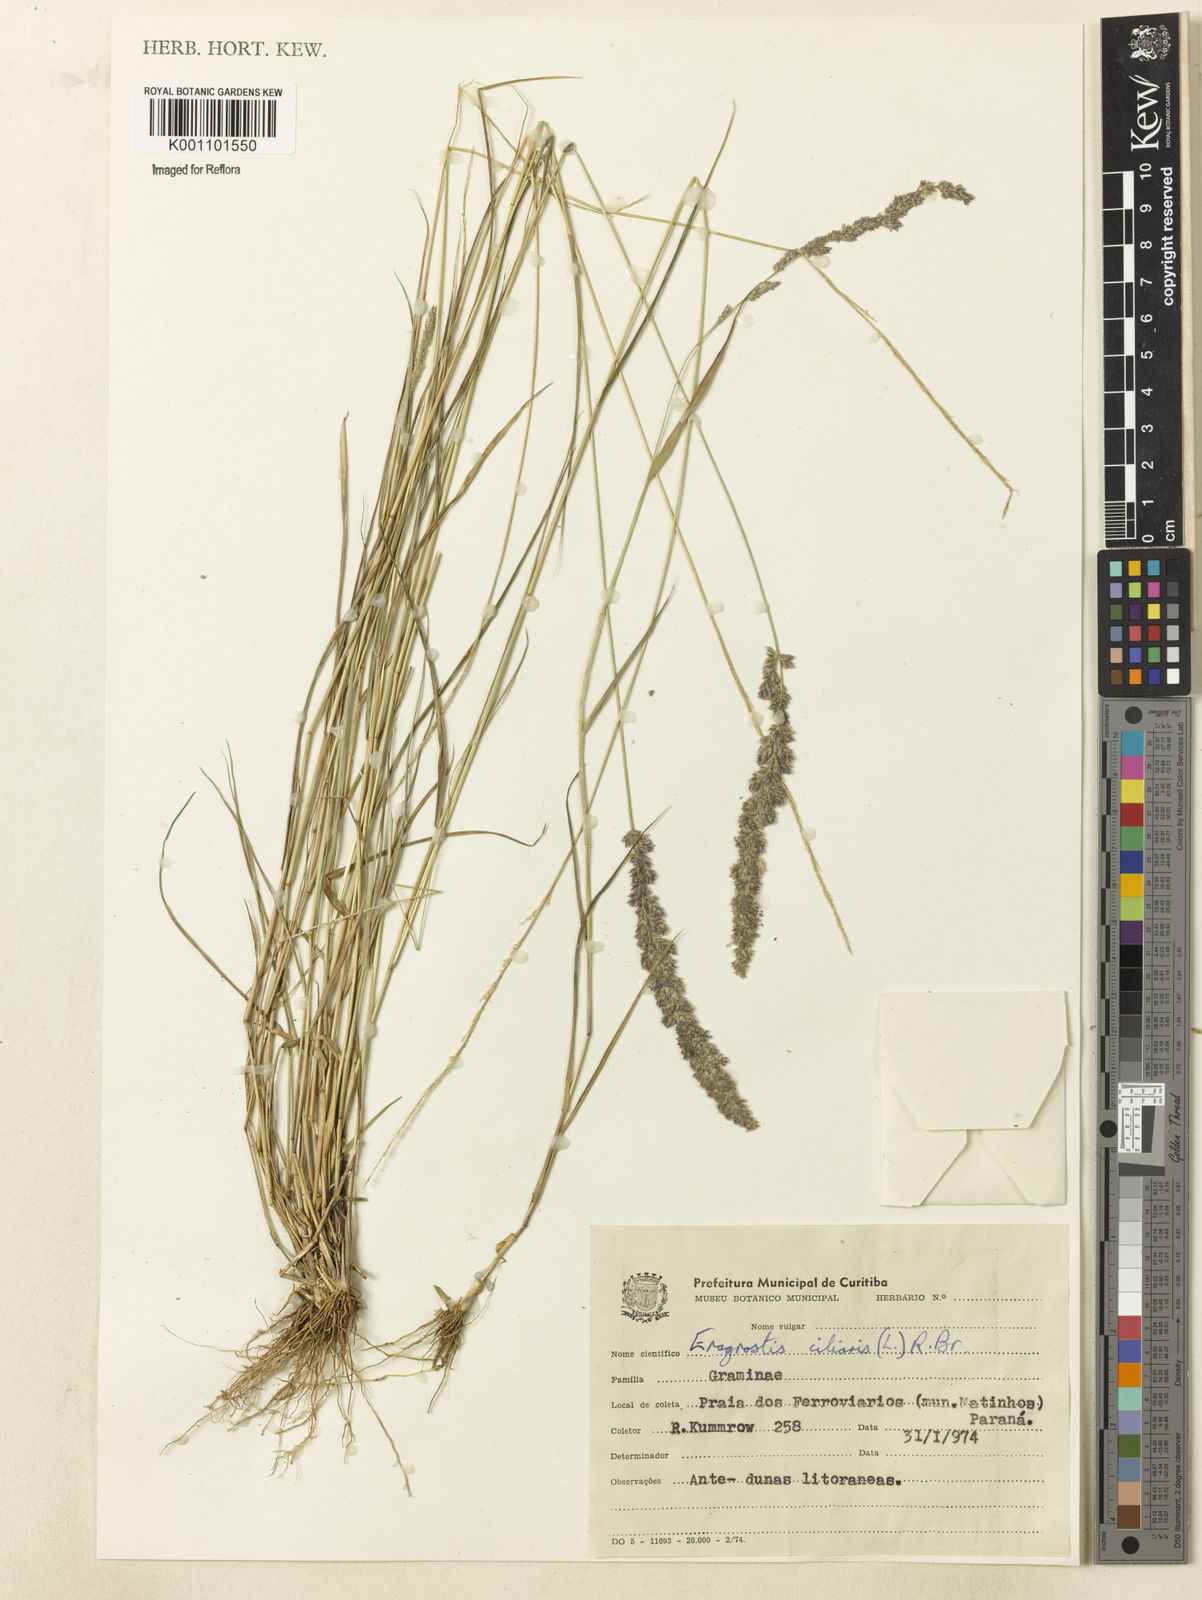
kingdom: Plantae
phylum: Tracheophyta
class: Liliopsida
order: Poales
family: Poaceae
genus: Eragrostis
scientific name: Eragrostis ciliaris
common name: Gophertail lovegrass
